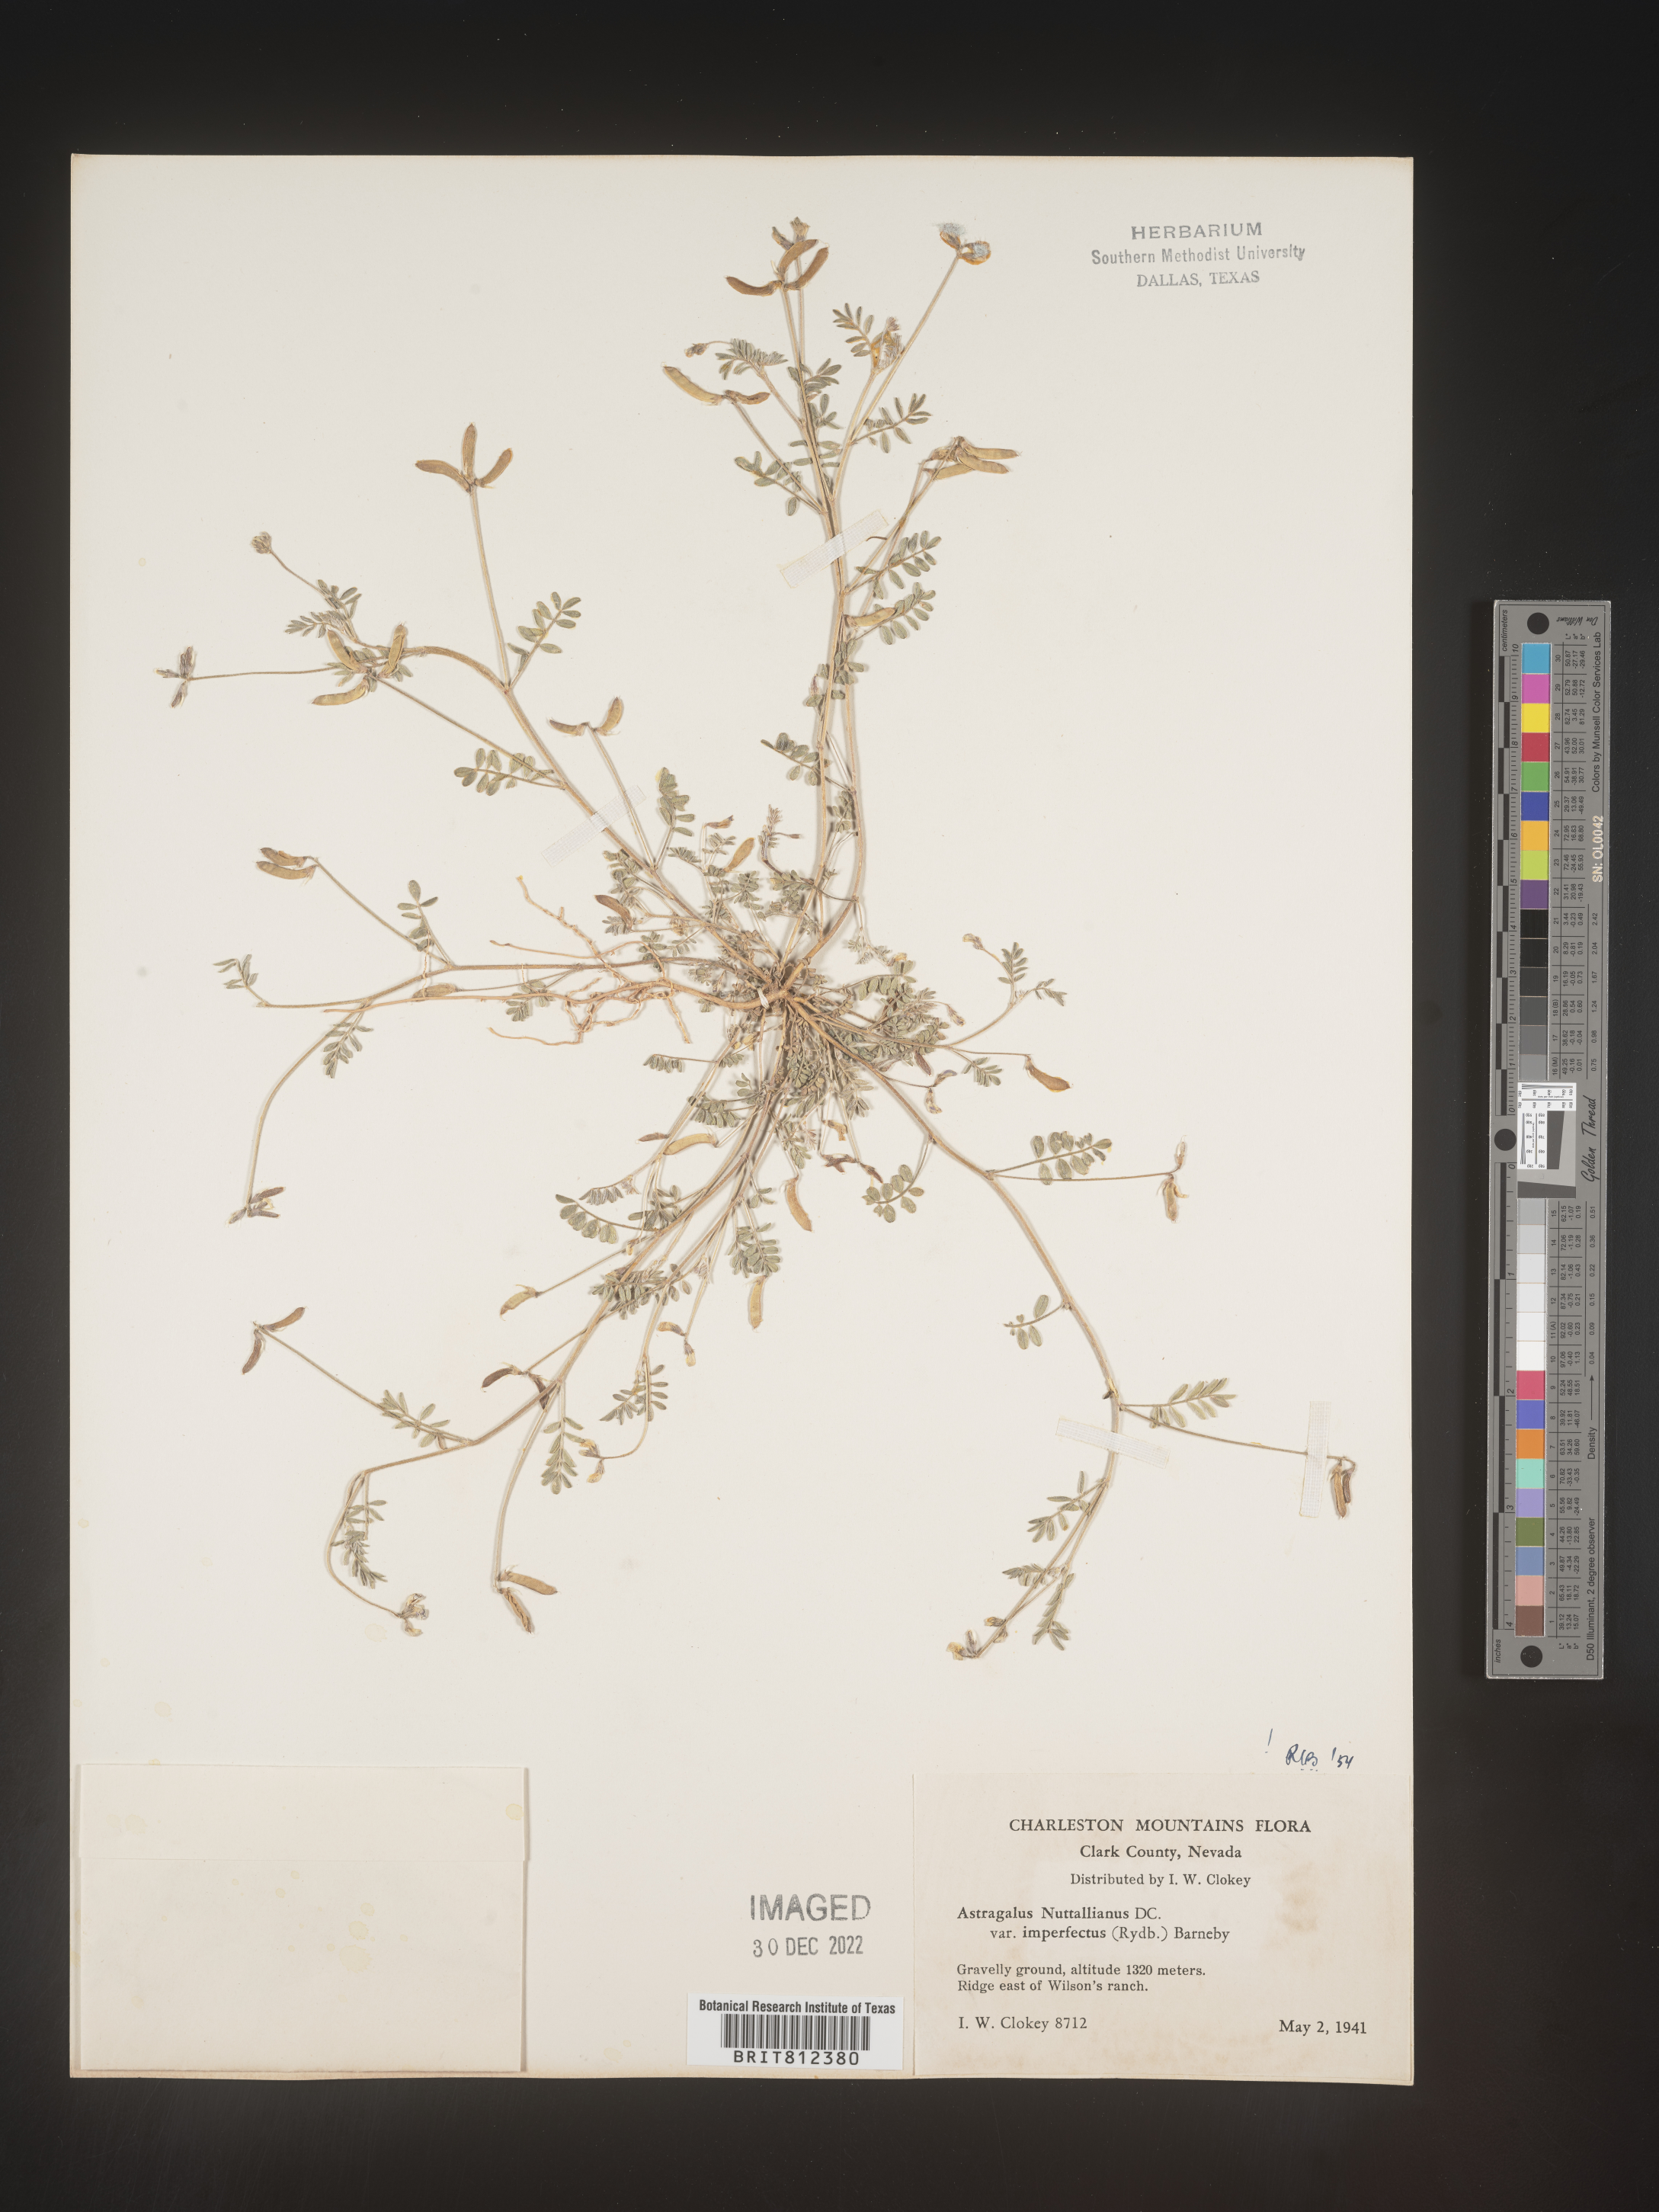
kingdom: Plantae
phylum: Tracheophyta
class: Magnoliopsida
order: Fabales
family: Fabaceae
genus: Astragalus
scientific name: Astragalus nuttallianus
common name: Smallflowered milkvetch
